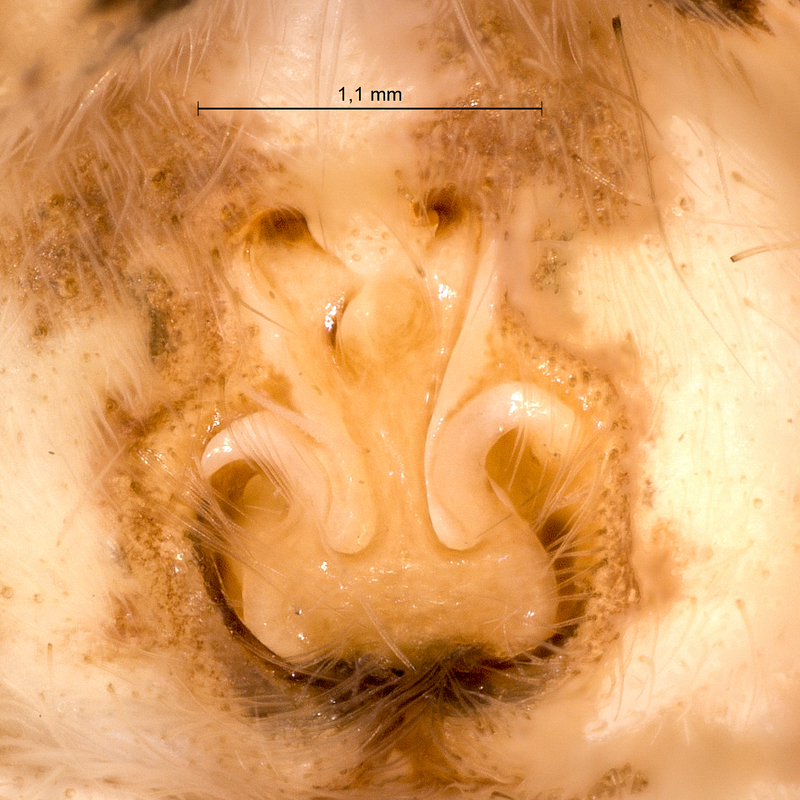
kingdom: Animalia
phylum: Arthropoda
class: Arachnida
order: Araneae
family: Pisauridae
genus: Pisaura
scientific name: Pisaura mirabilis
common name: Tent spider
